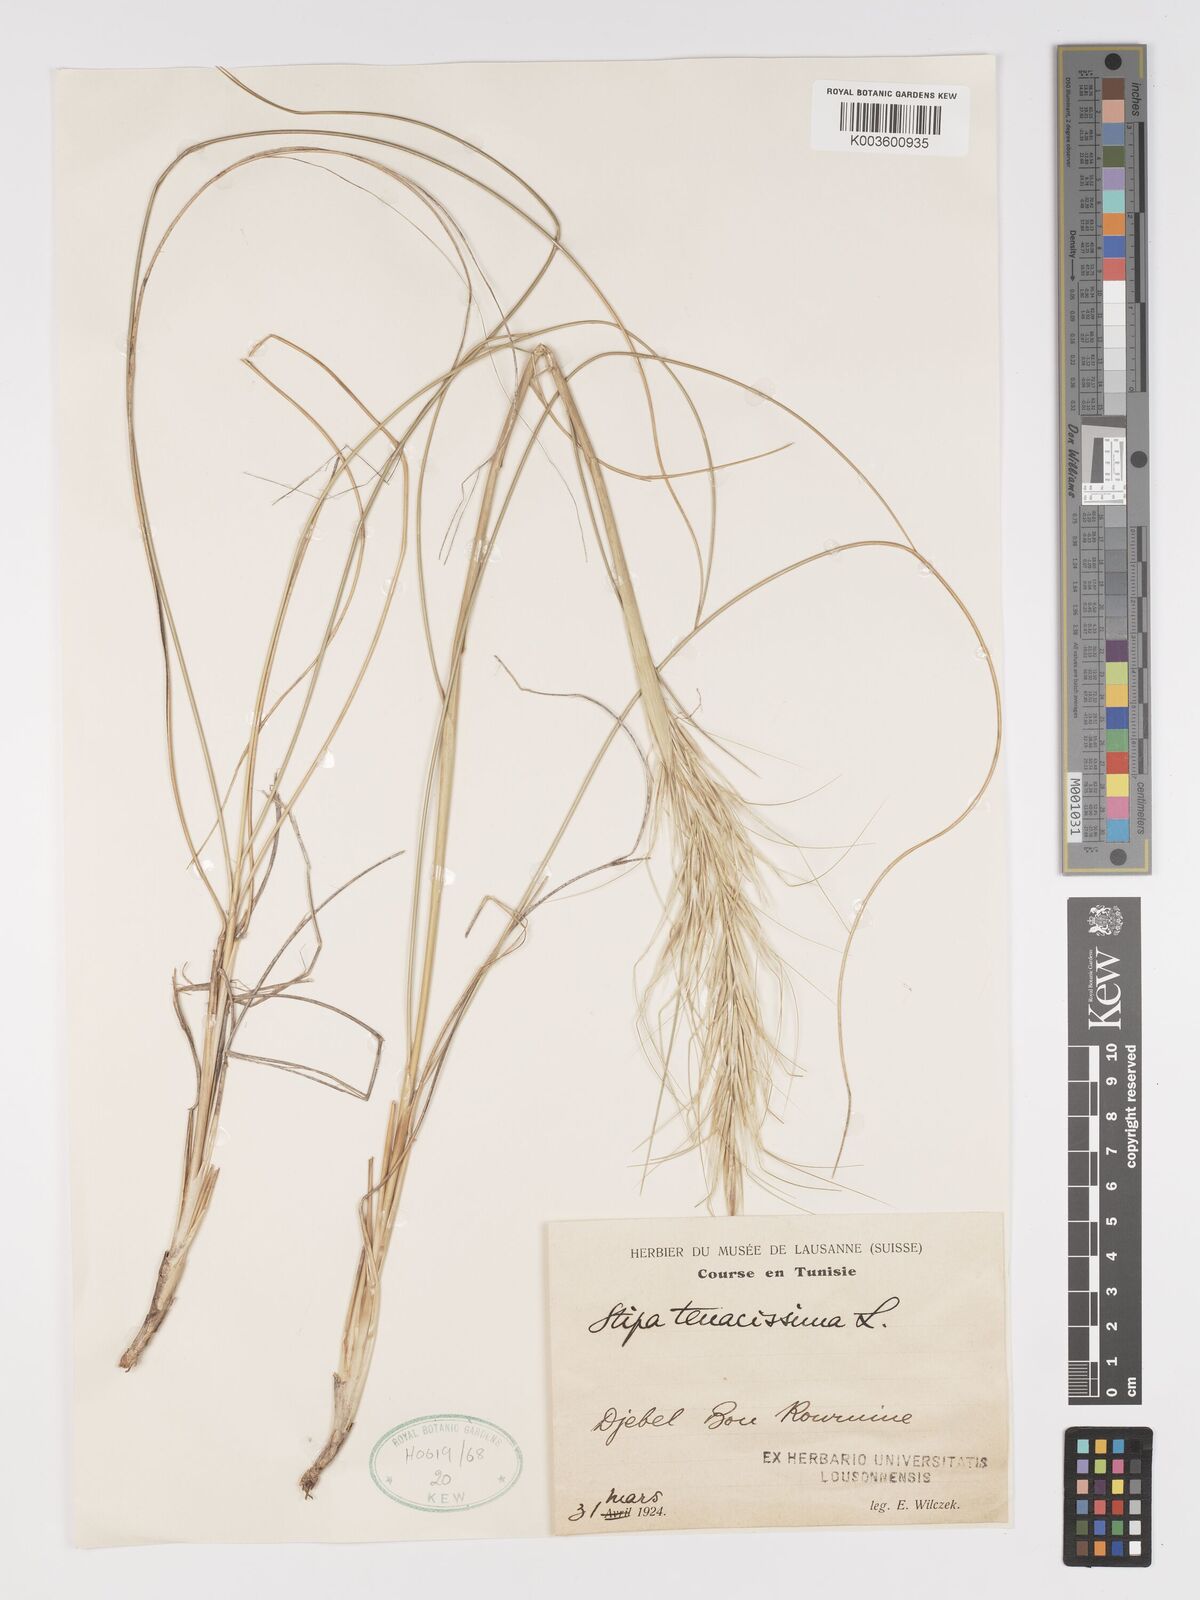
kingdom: Plantae
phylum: Tracheophyta
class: Liliopsida
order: Poales
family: Poaceae
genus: Macrochloa
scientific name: Macrochloa tenacissima
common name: Alfa grass
